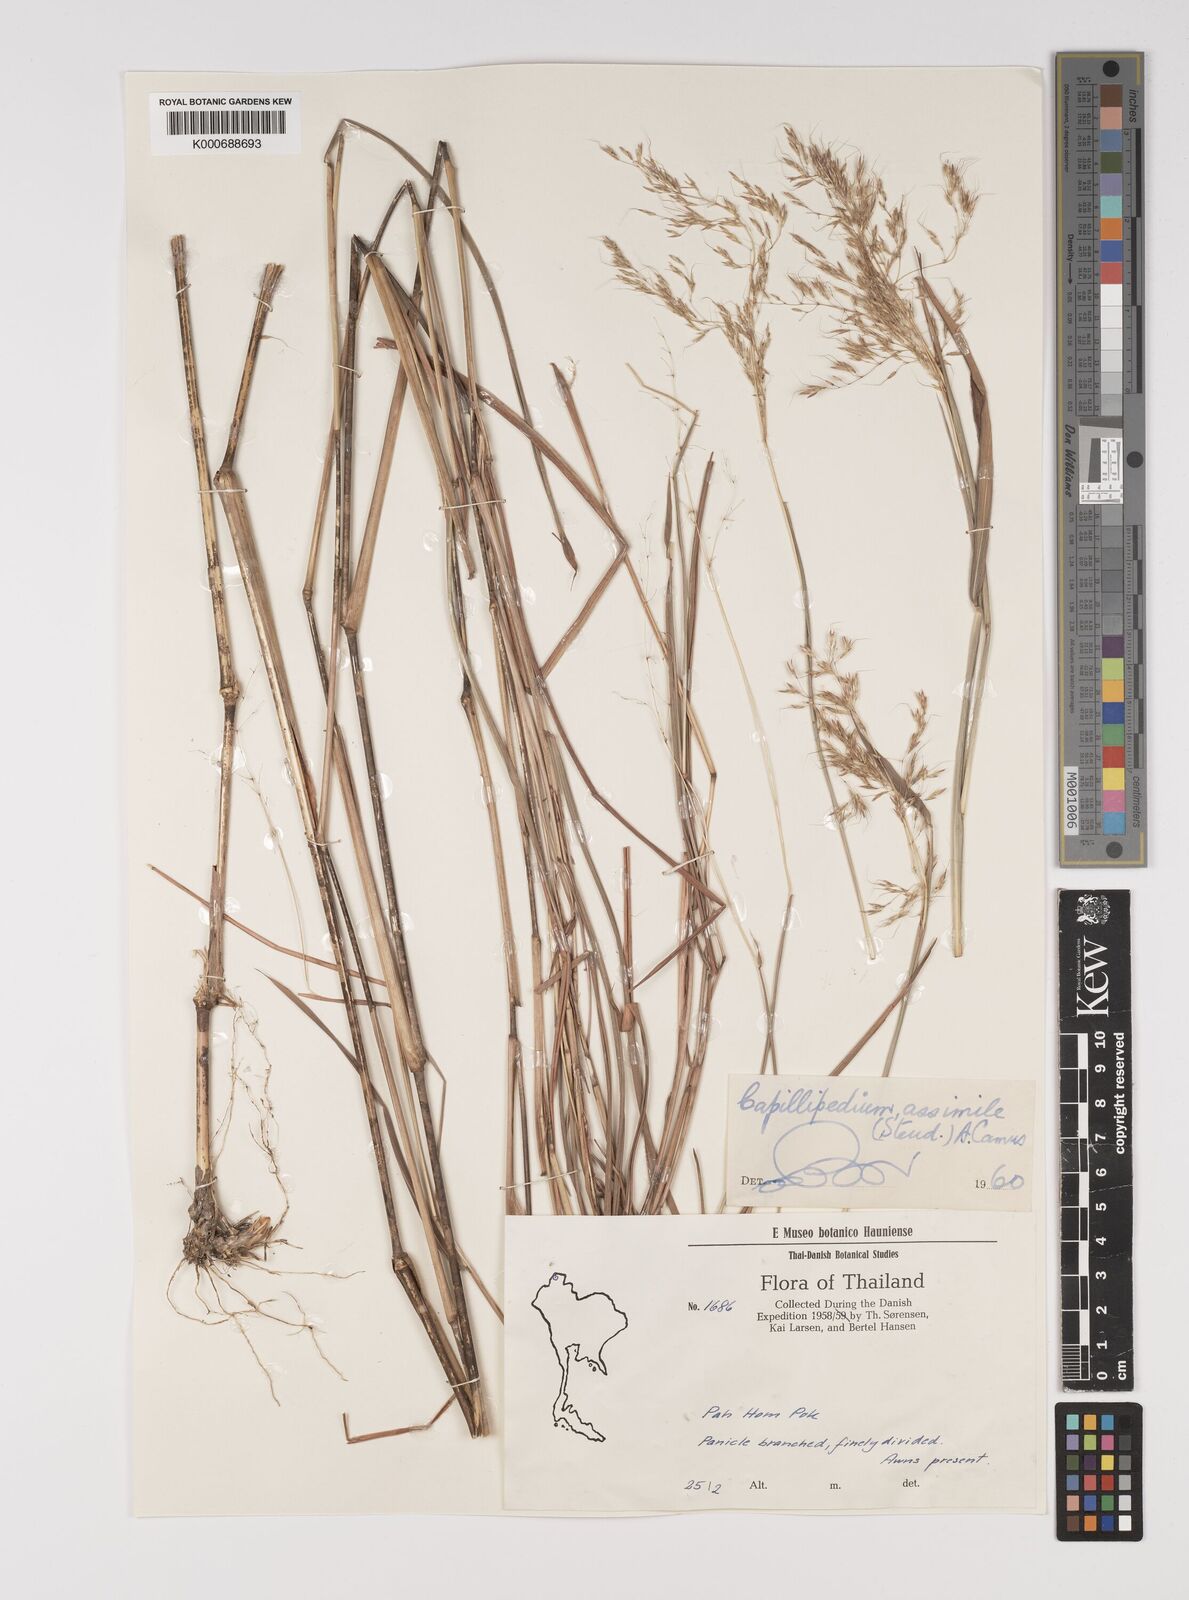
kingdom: Plantae
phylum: Tracheophyta
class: Liliopsida
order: Poales
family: Poaceae
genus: Capillipedium
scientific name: Capillipedium spicigerum
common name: Scented-top grass
